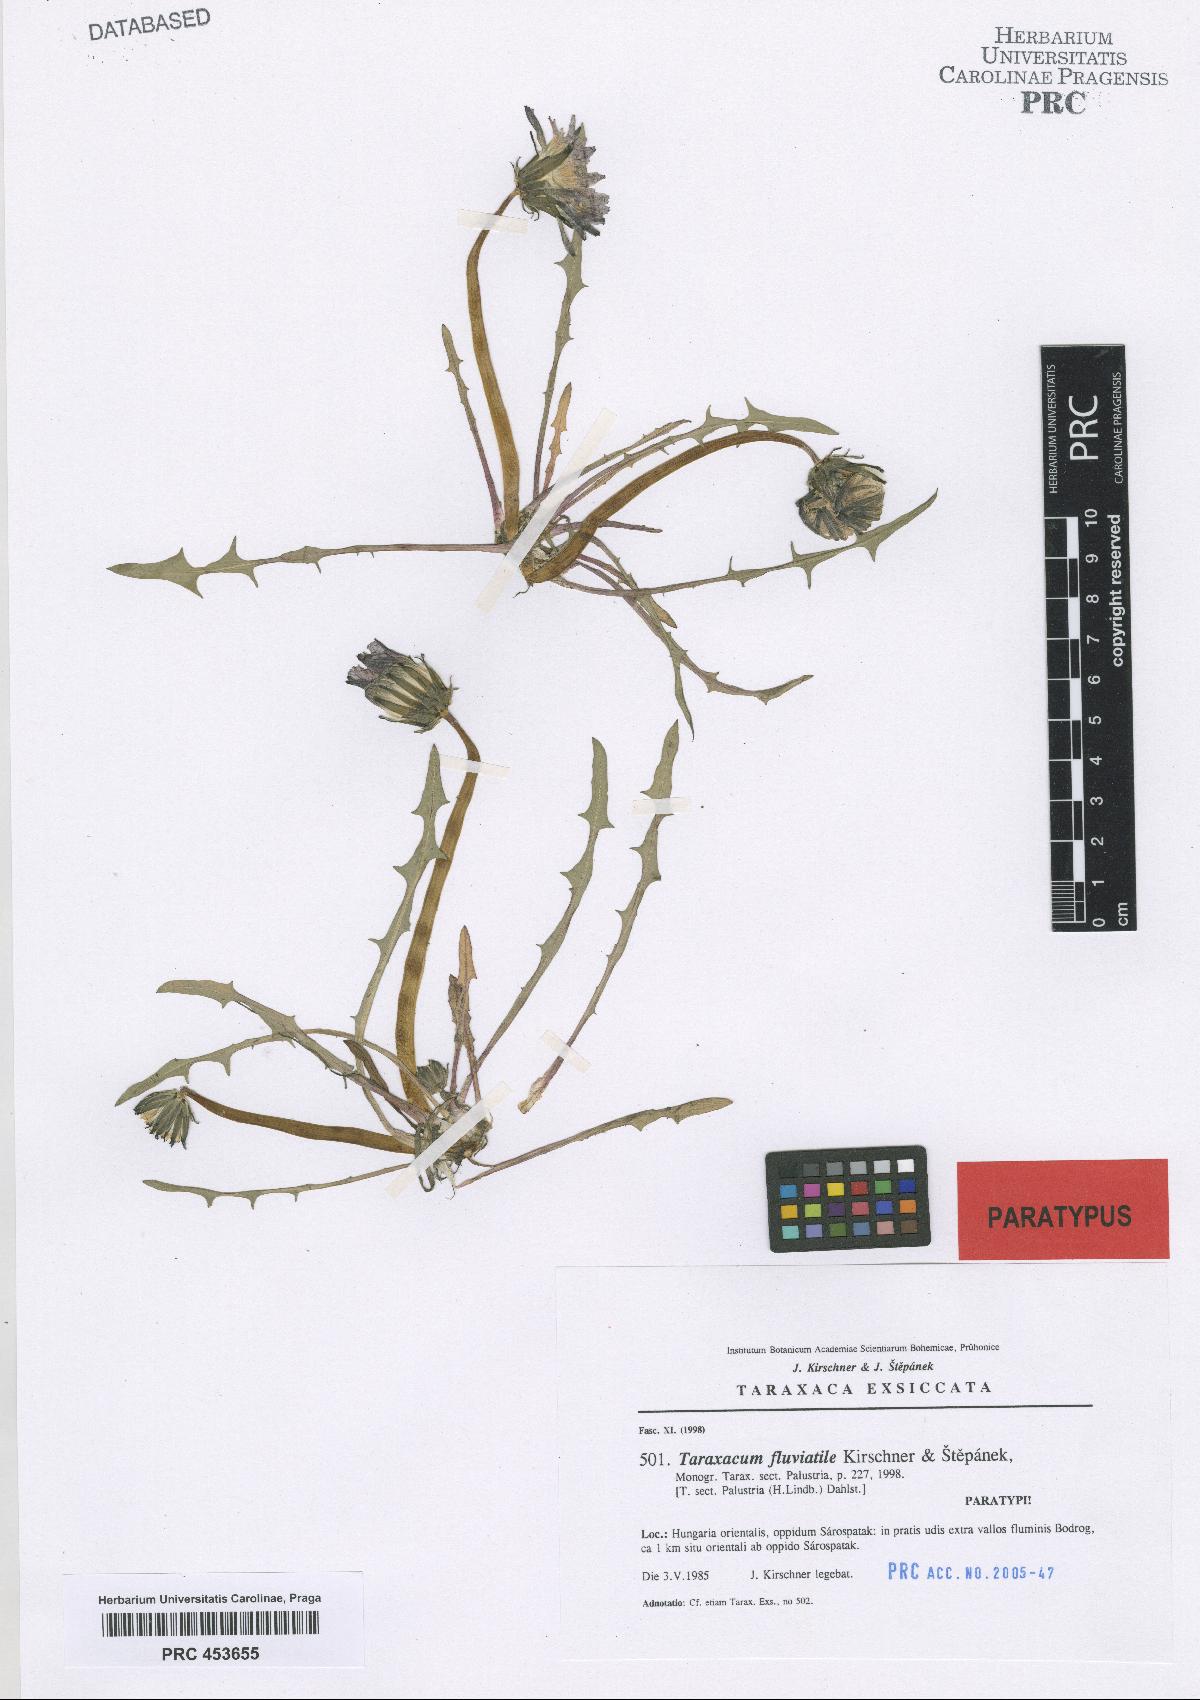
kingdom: Plantae
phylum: Tracheophyta
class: Magnoliopsida
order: Asterales
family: Asteraceae
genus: Taraxacum
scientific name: Taraxacum fluviatile
